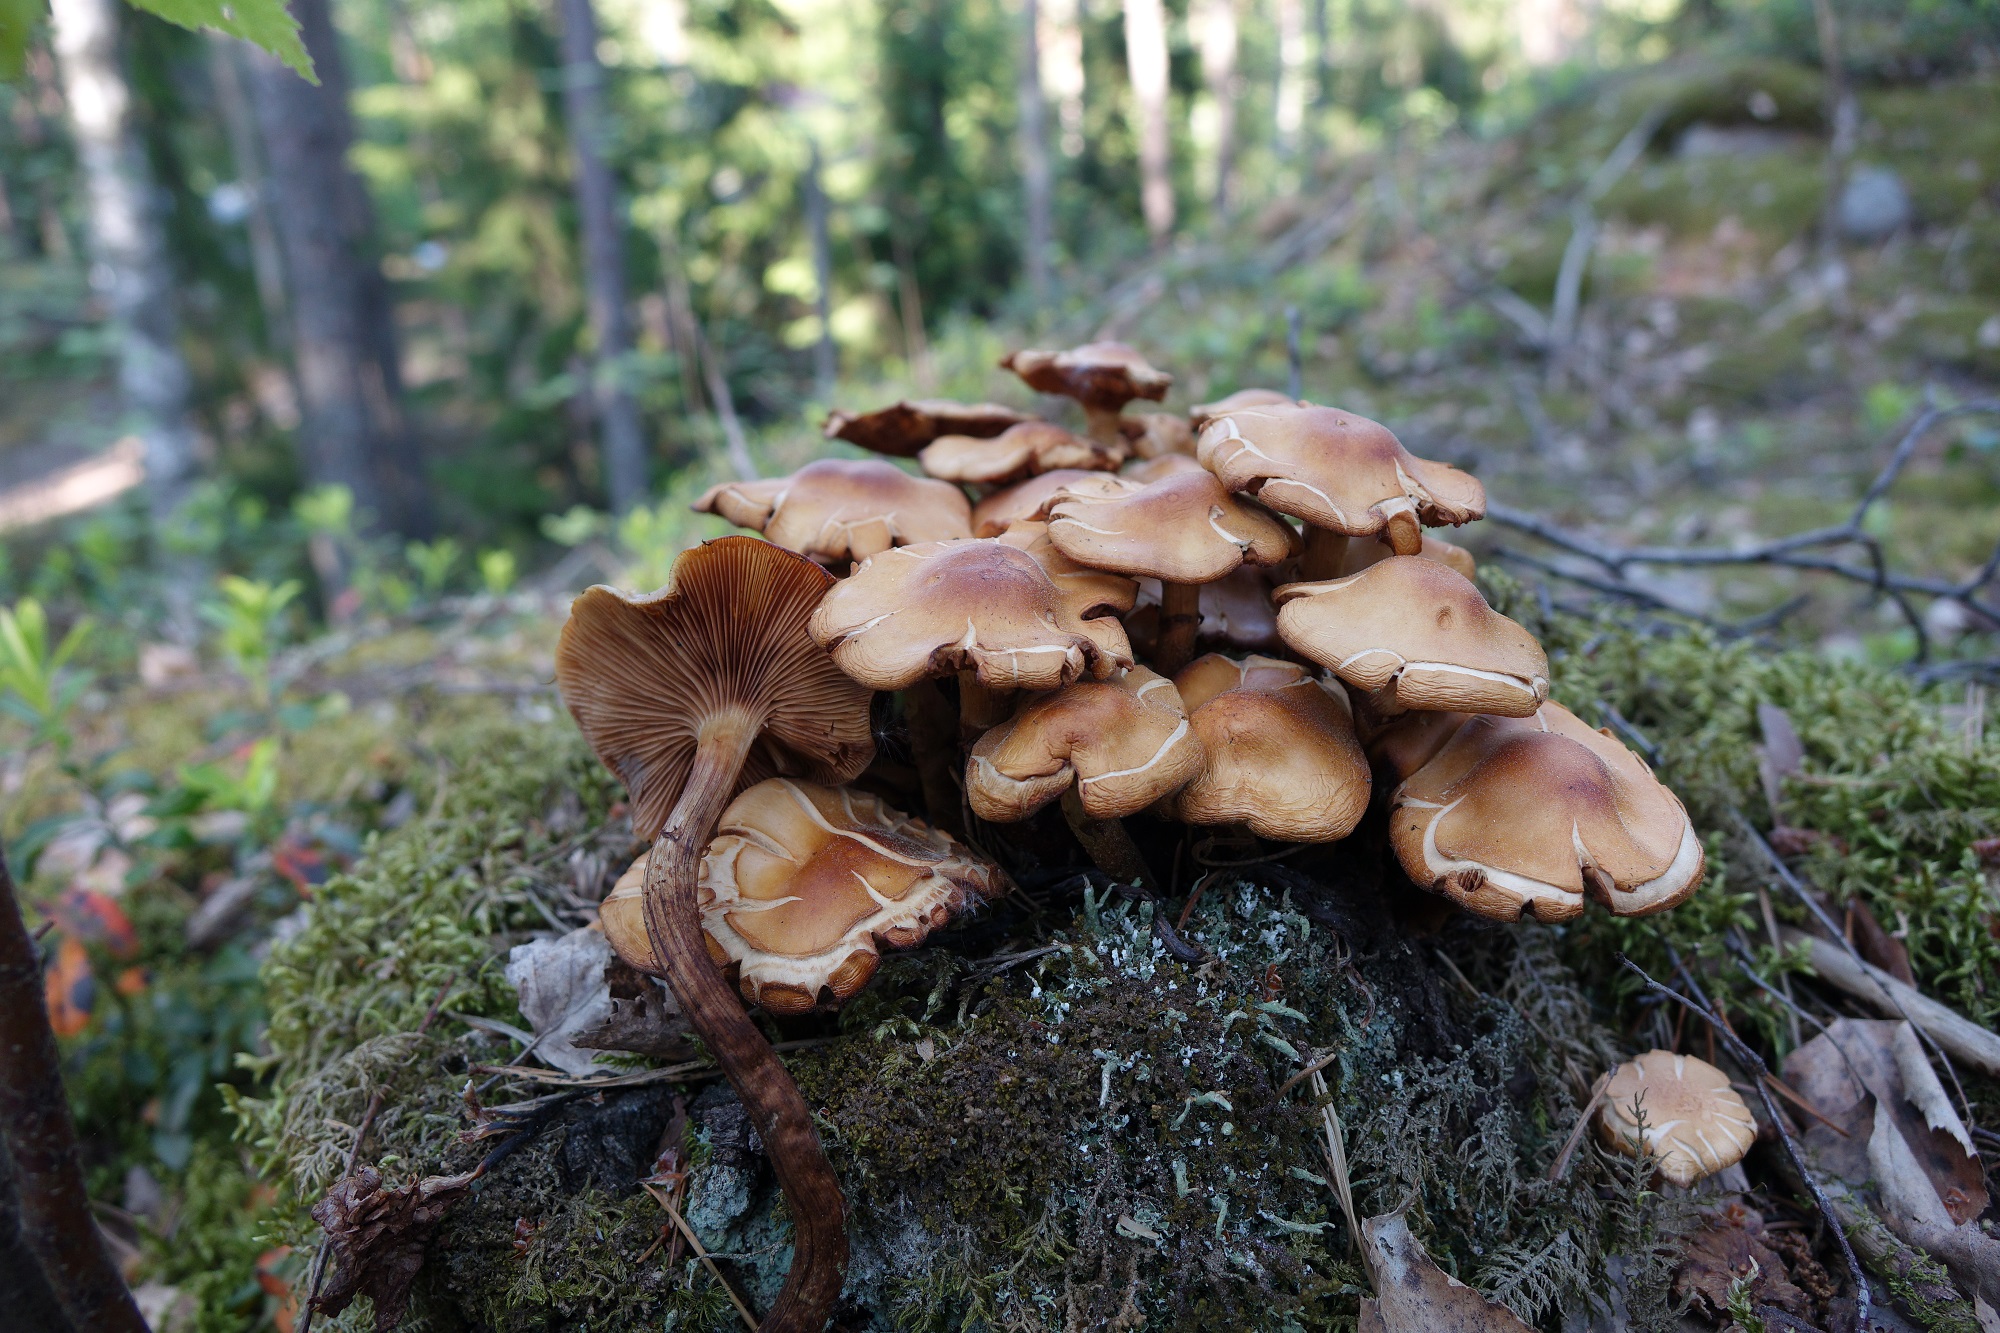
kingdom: Fungi
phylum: Basidiomycota
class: Agaricomycetes
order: Agaricales
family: Strophariaceae
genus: Kuehneromyces
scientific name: Kuehneromyces mutabilis
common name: Sheathed woodtuft
